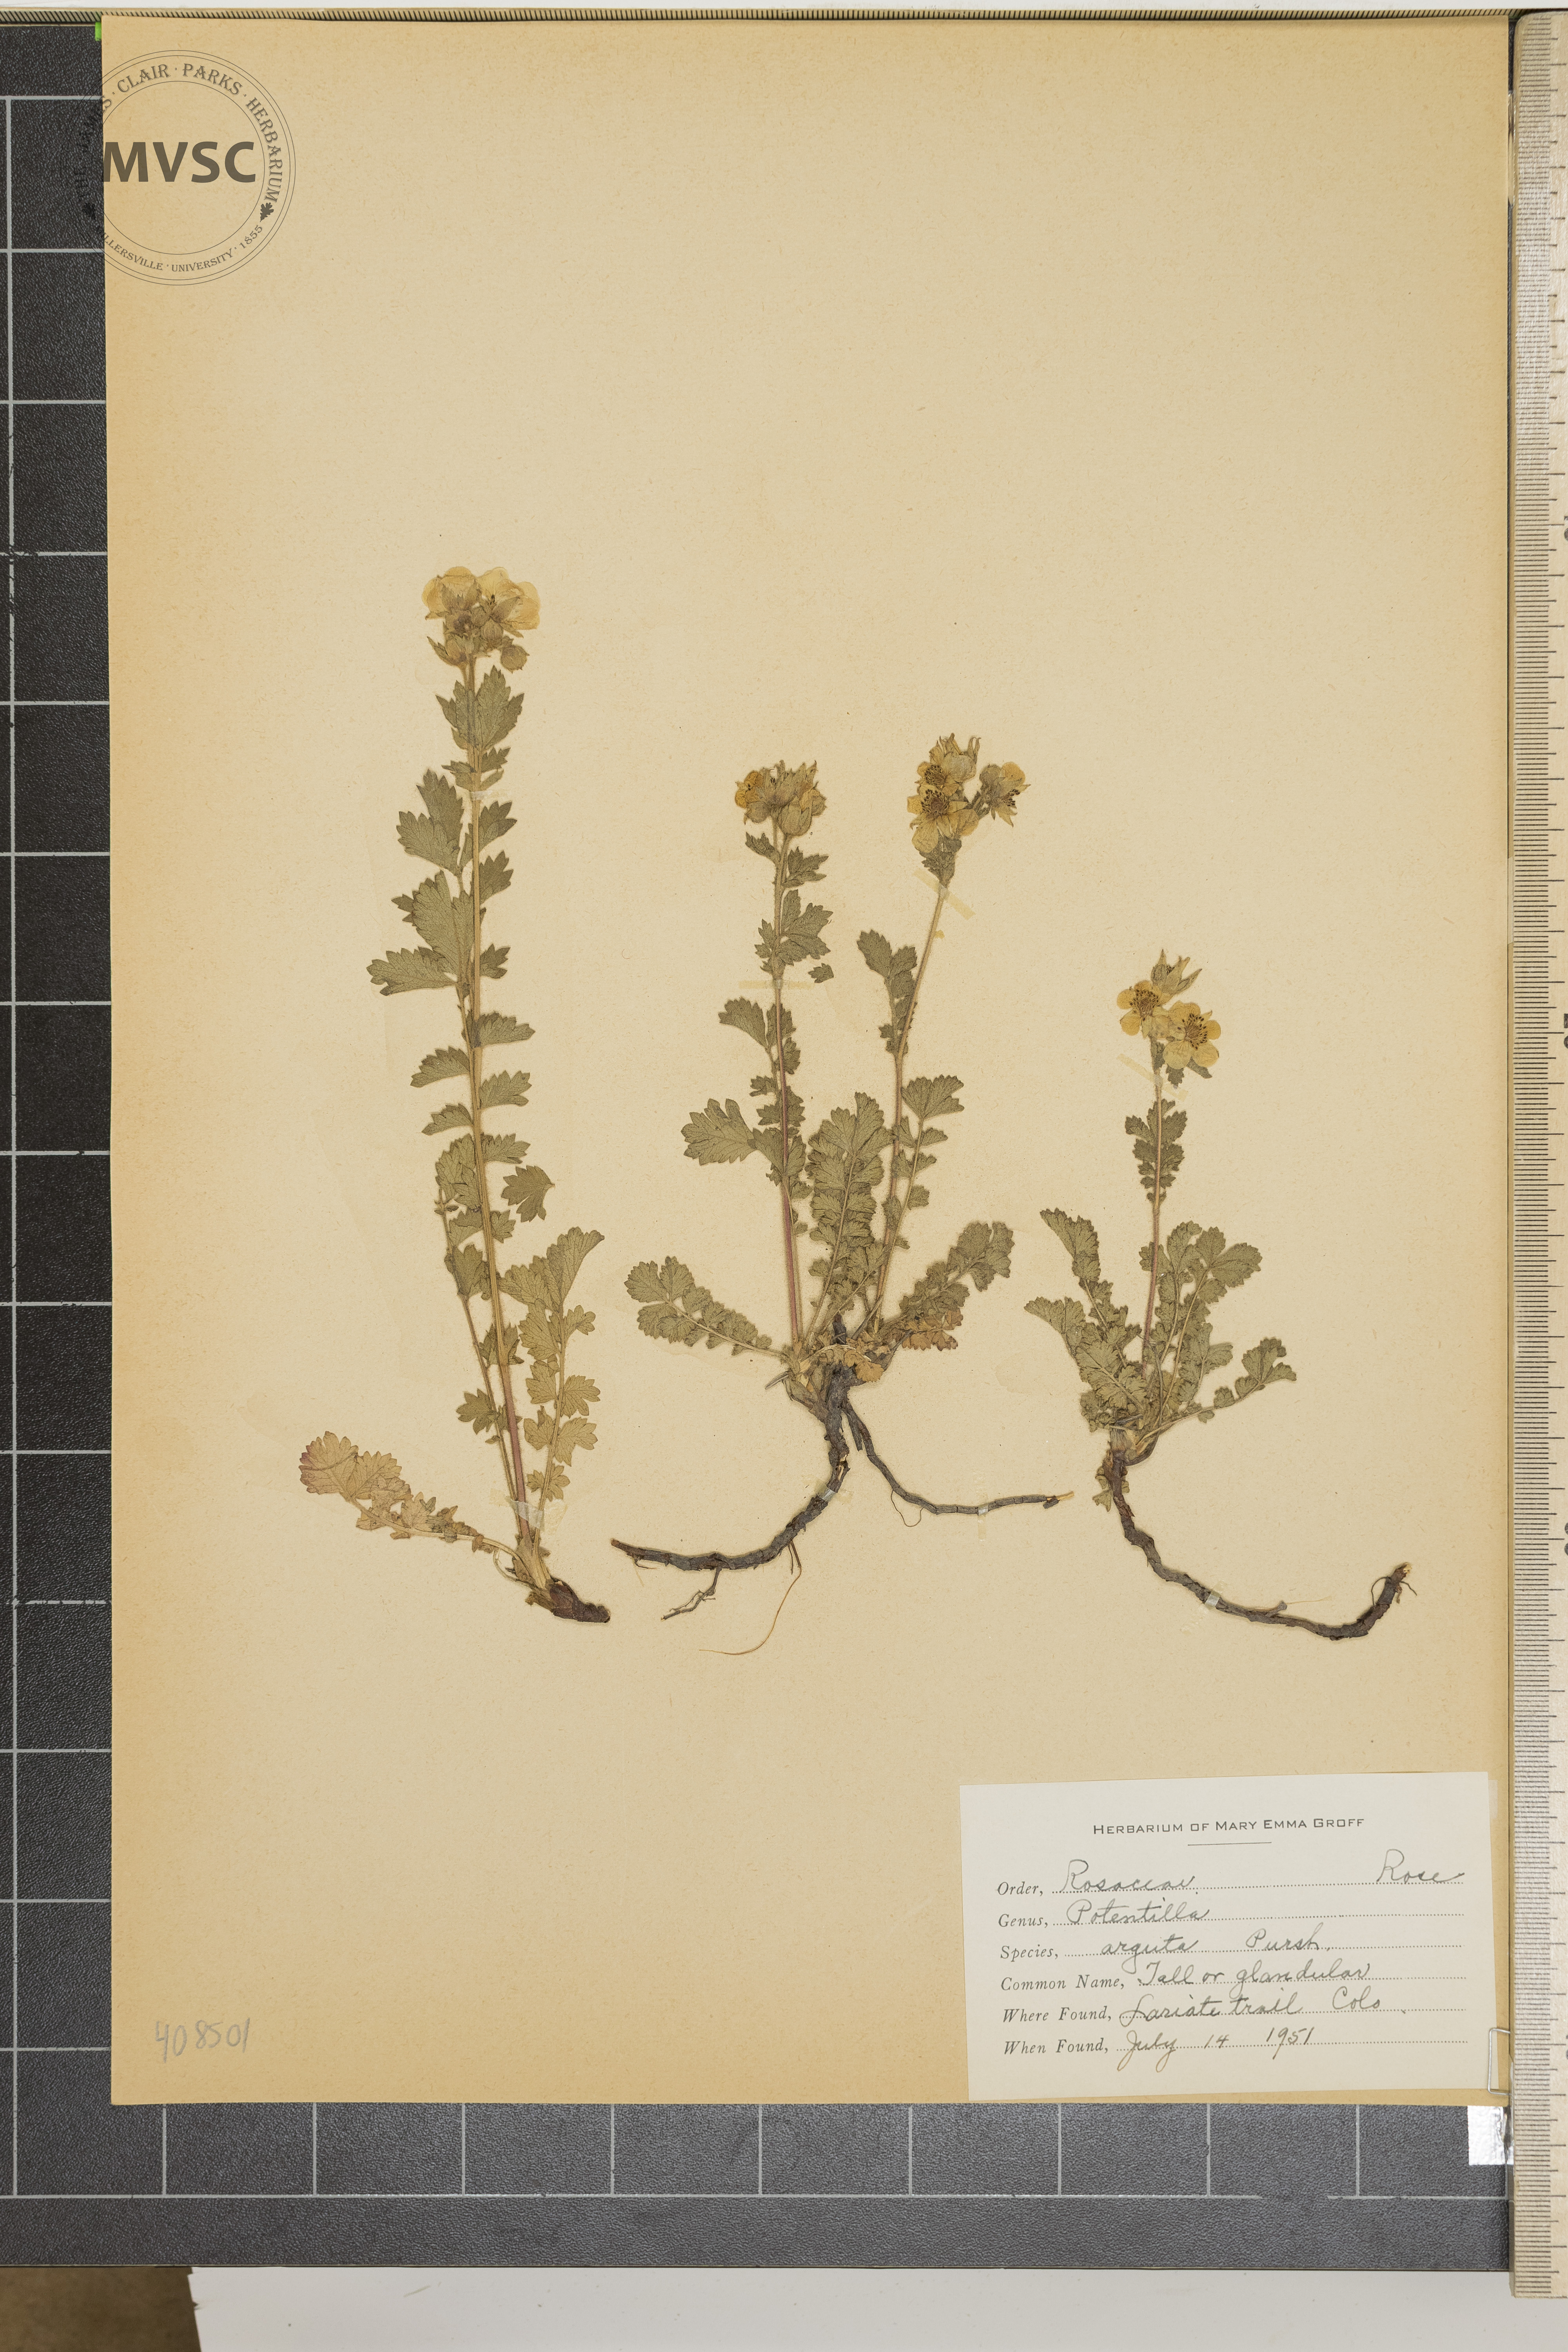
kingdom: Plantae
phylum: Tracheophyta
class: Magnoliopsida
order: Rosales
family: Rosaceae
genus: Drymocallis
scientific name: Drymocallis
